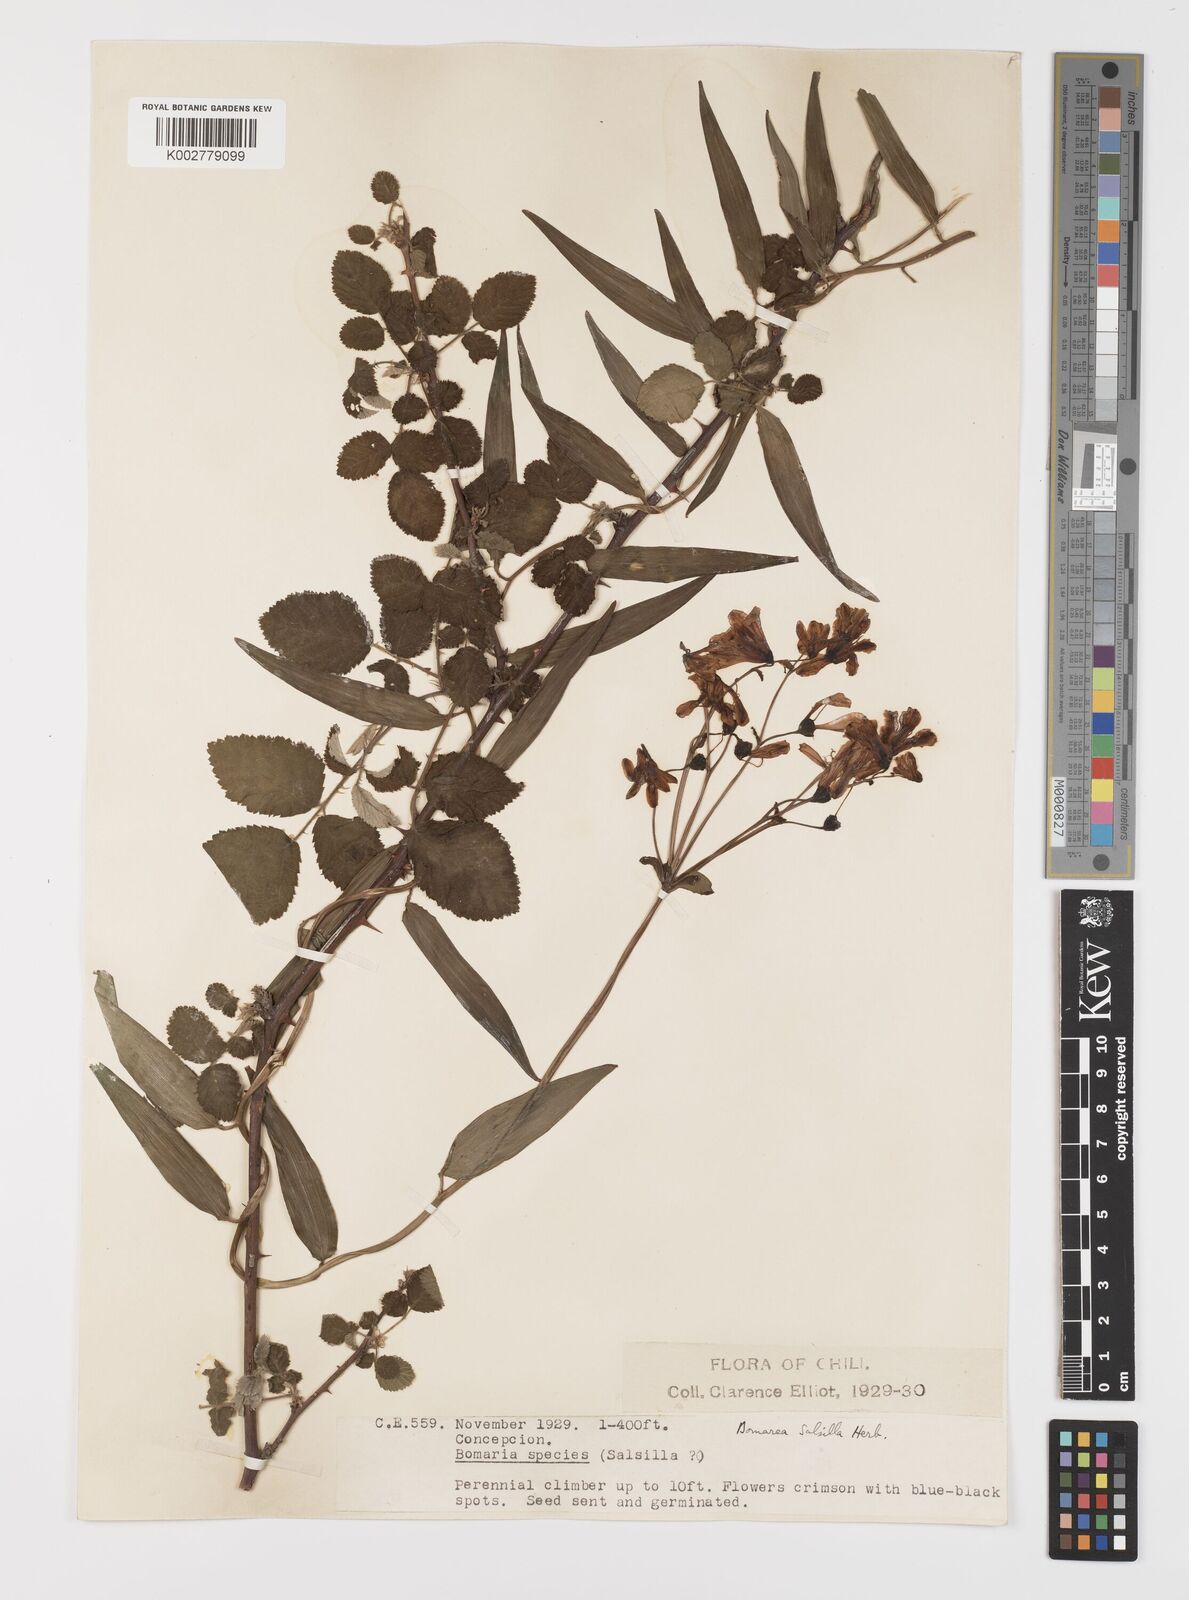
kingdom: Plantae
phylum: Tracheophyta
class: Liliopsida
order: Liliales
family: Alstroemeriaceae
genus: Bomarea
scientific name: Bomarea edulis
